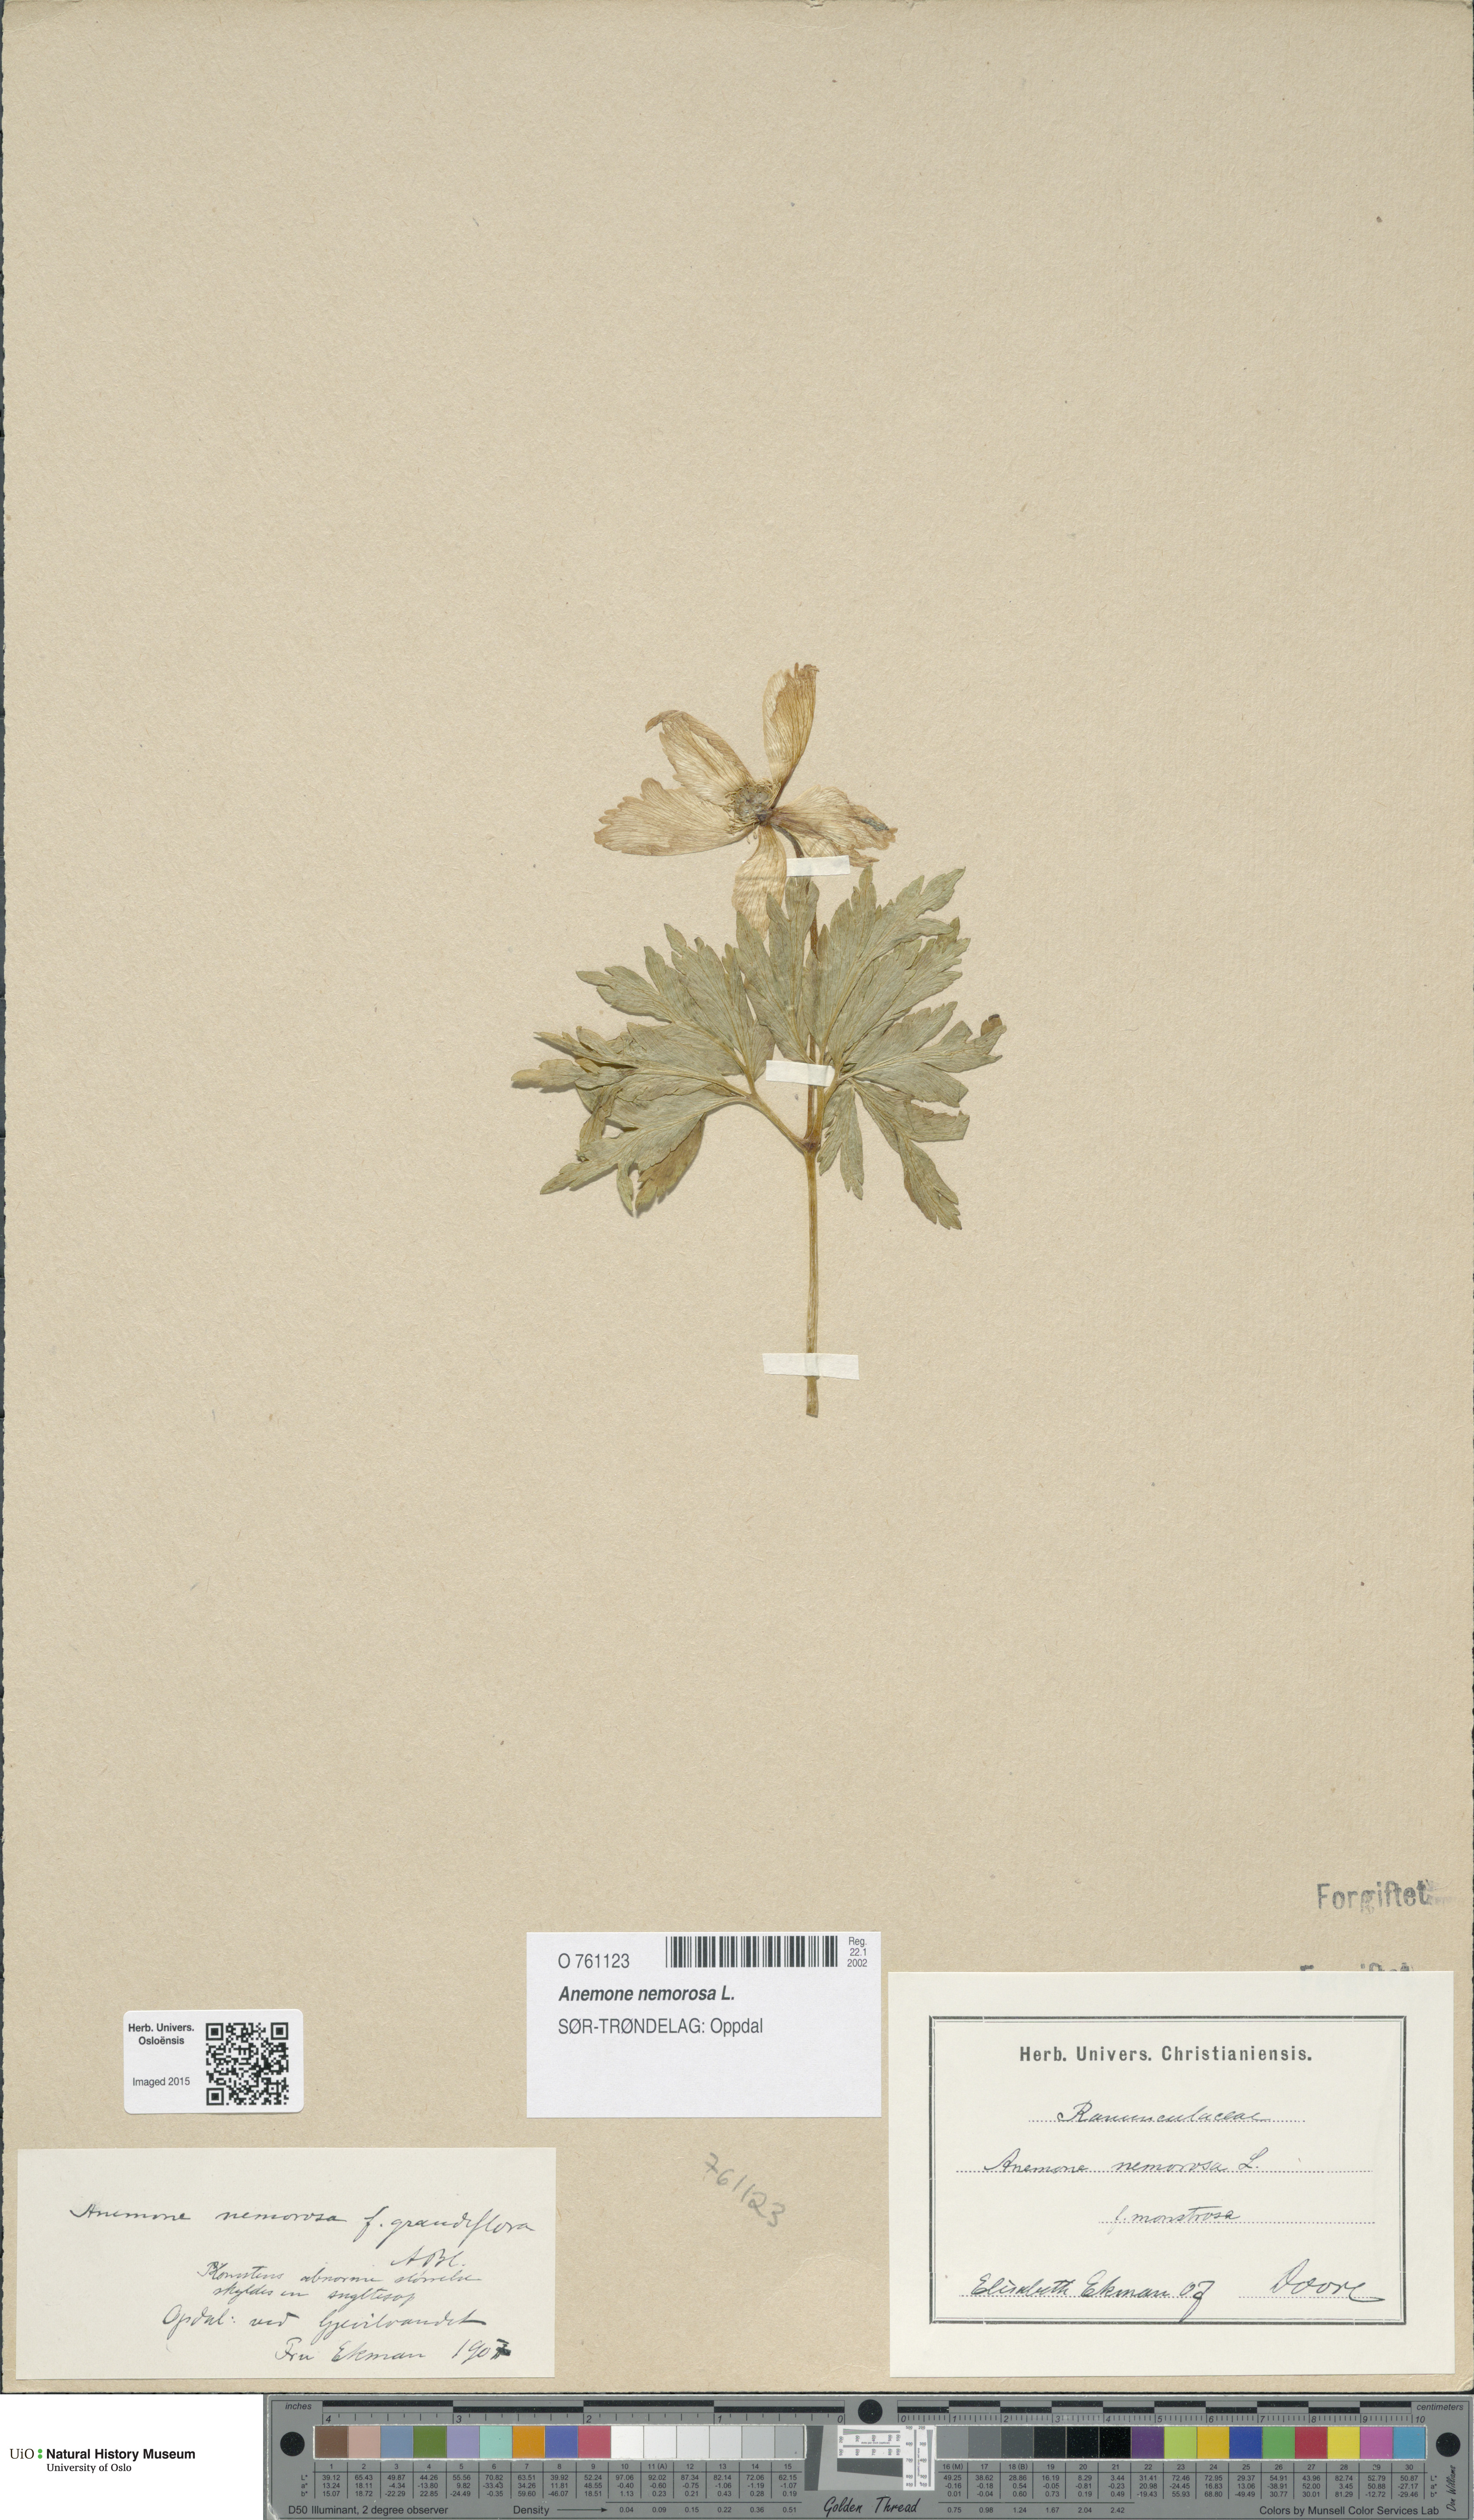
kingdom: Plantae
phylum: Tracheophyta
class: Magnoliopsida
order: Ranunculales
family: Ranunculaceae
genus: Anemone
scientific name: Anemone nemorosa
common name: Wood anemone
